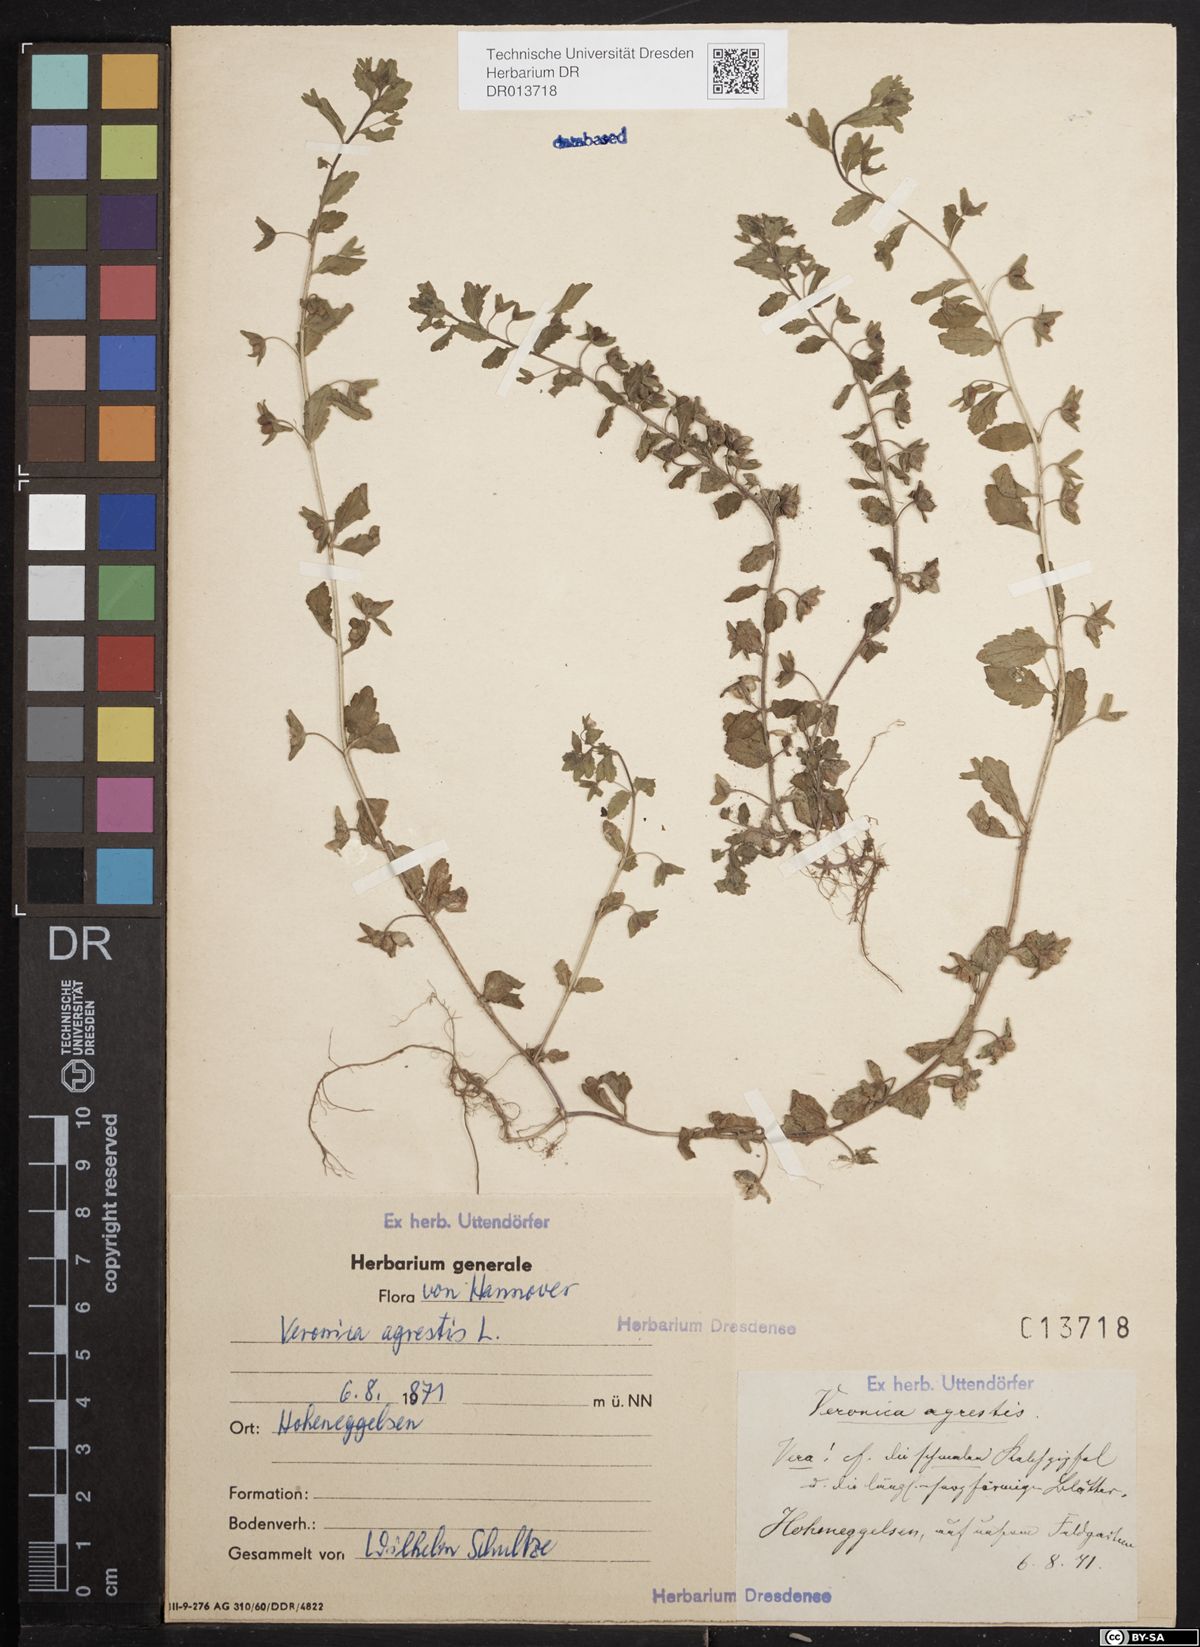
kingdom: Plantae
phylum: Tracheophyta
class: Magnoliopsida
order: Lamiales
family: Plantaginaceae
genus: Veronica
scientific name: Veronica agrestis
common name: Green field-speedwell
